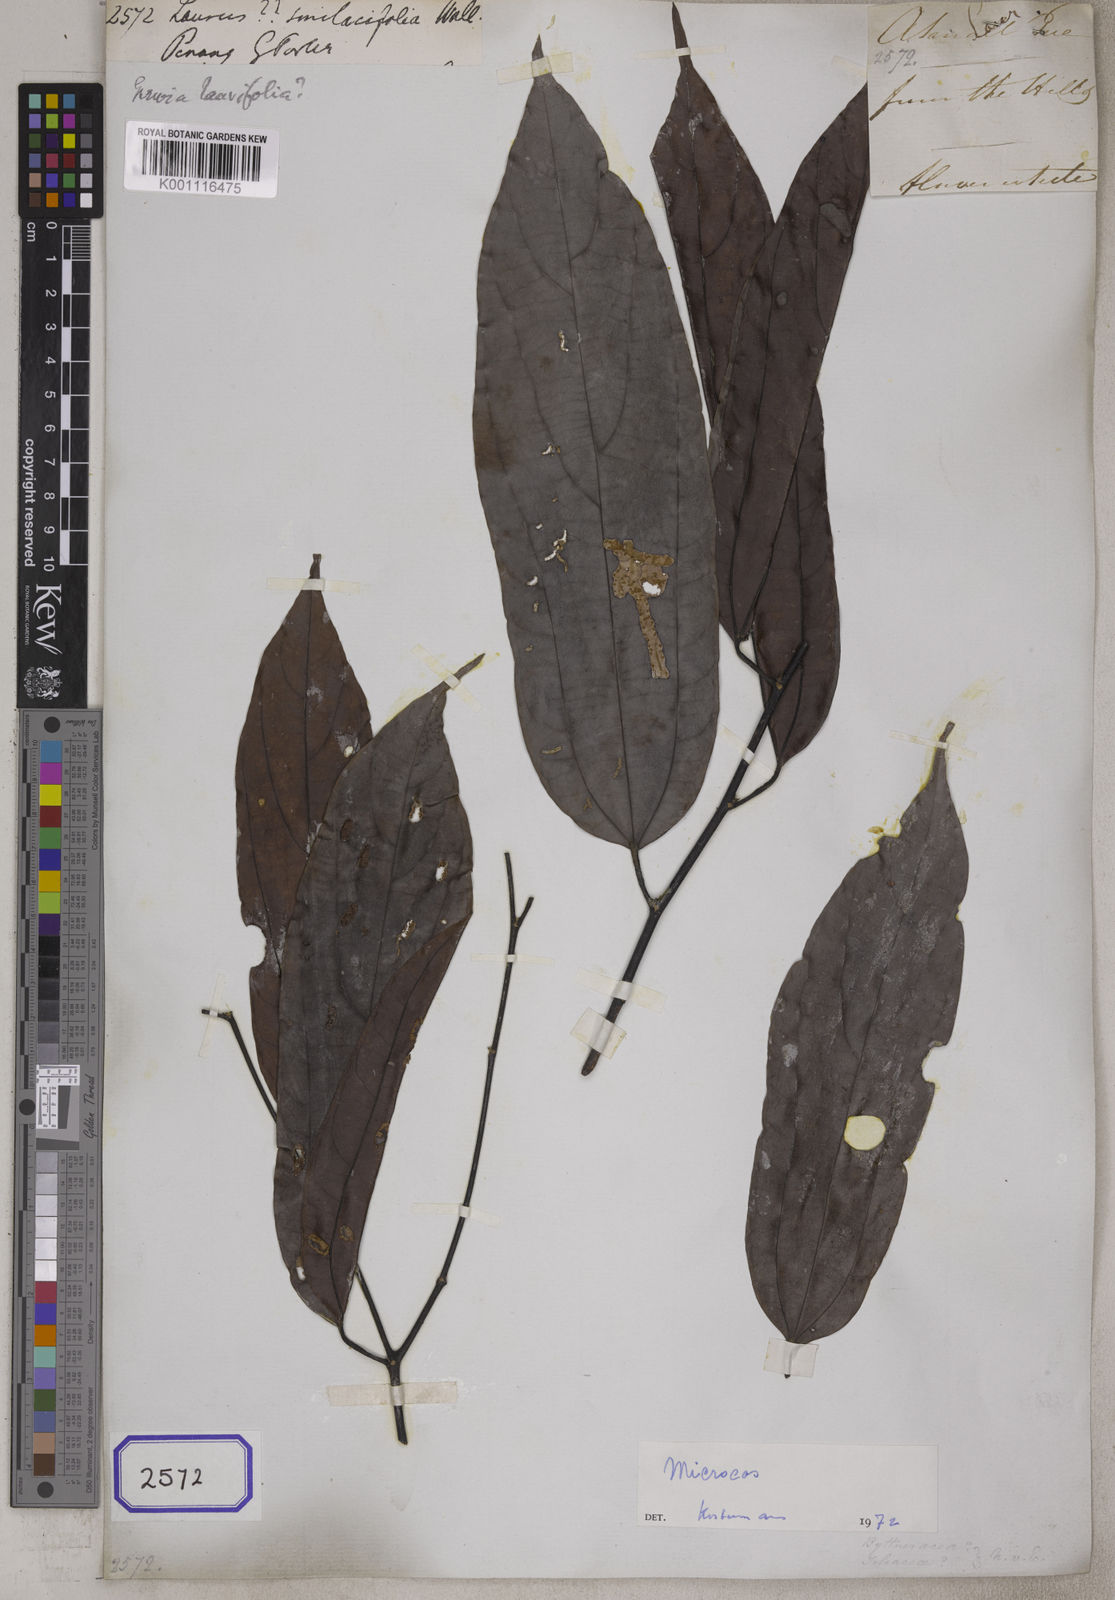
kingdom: Plantae
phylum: Tracheophyta
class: Magnoliopsida
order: Malvales
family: Malvaceae
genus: Microcos
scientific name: Microcos laurifolia
